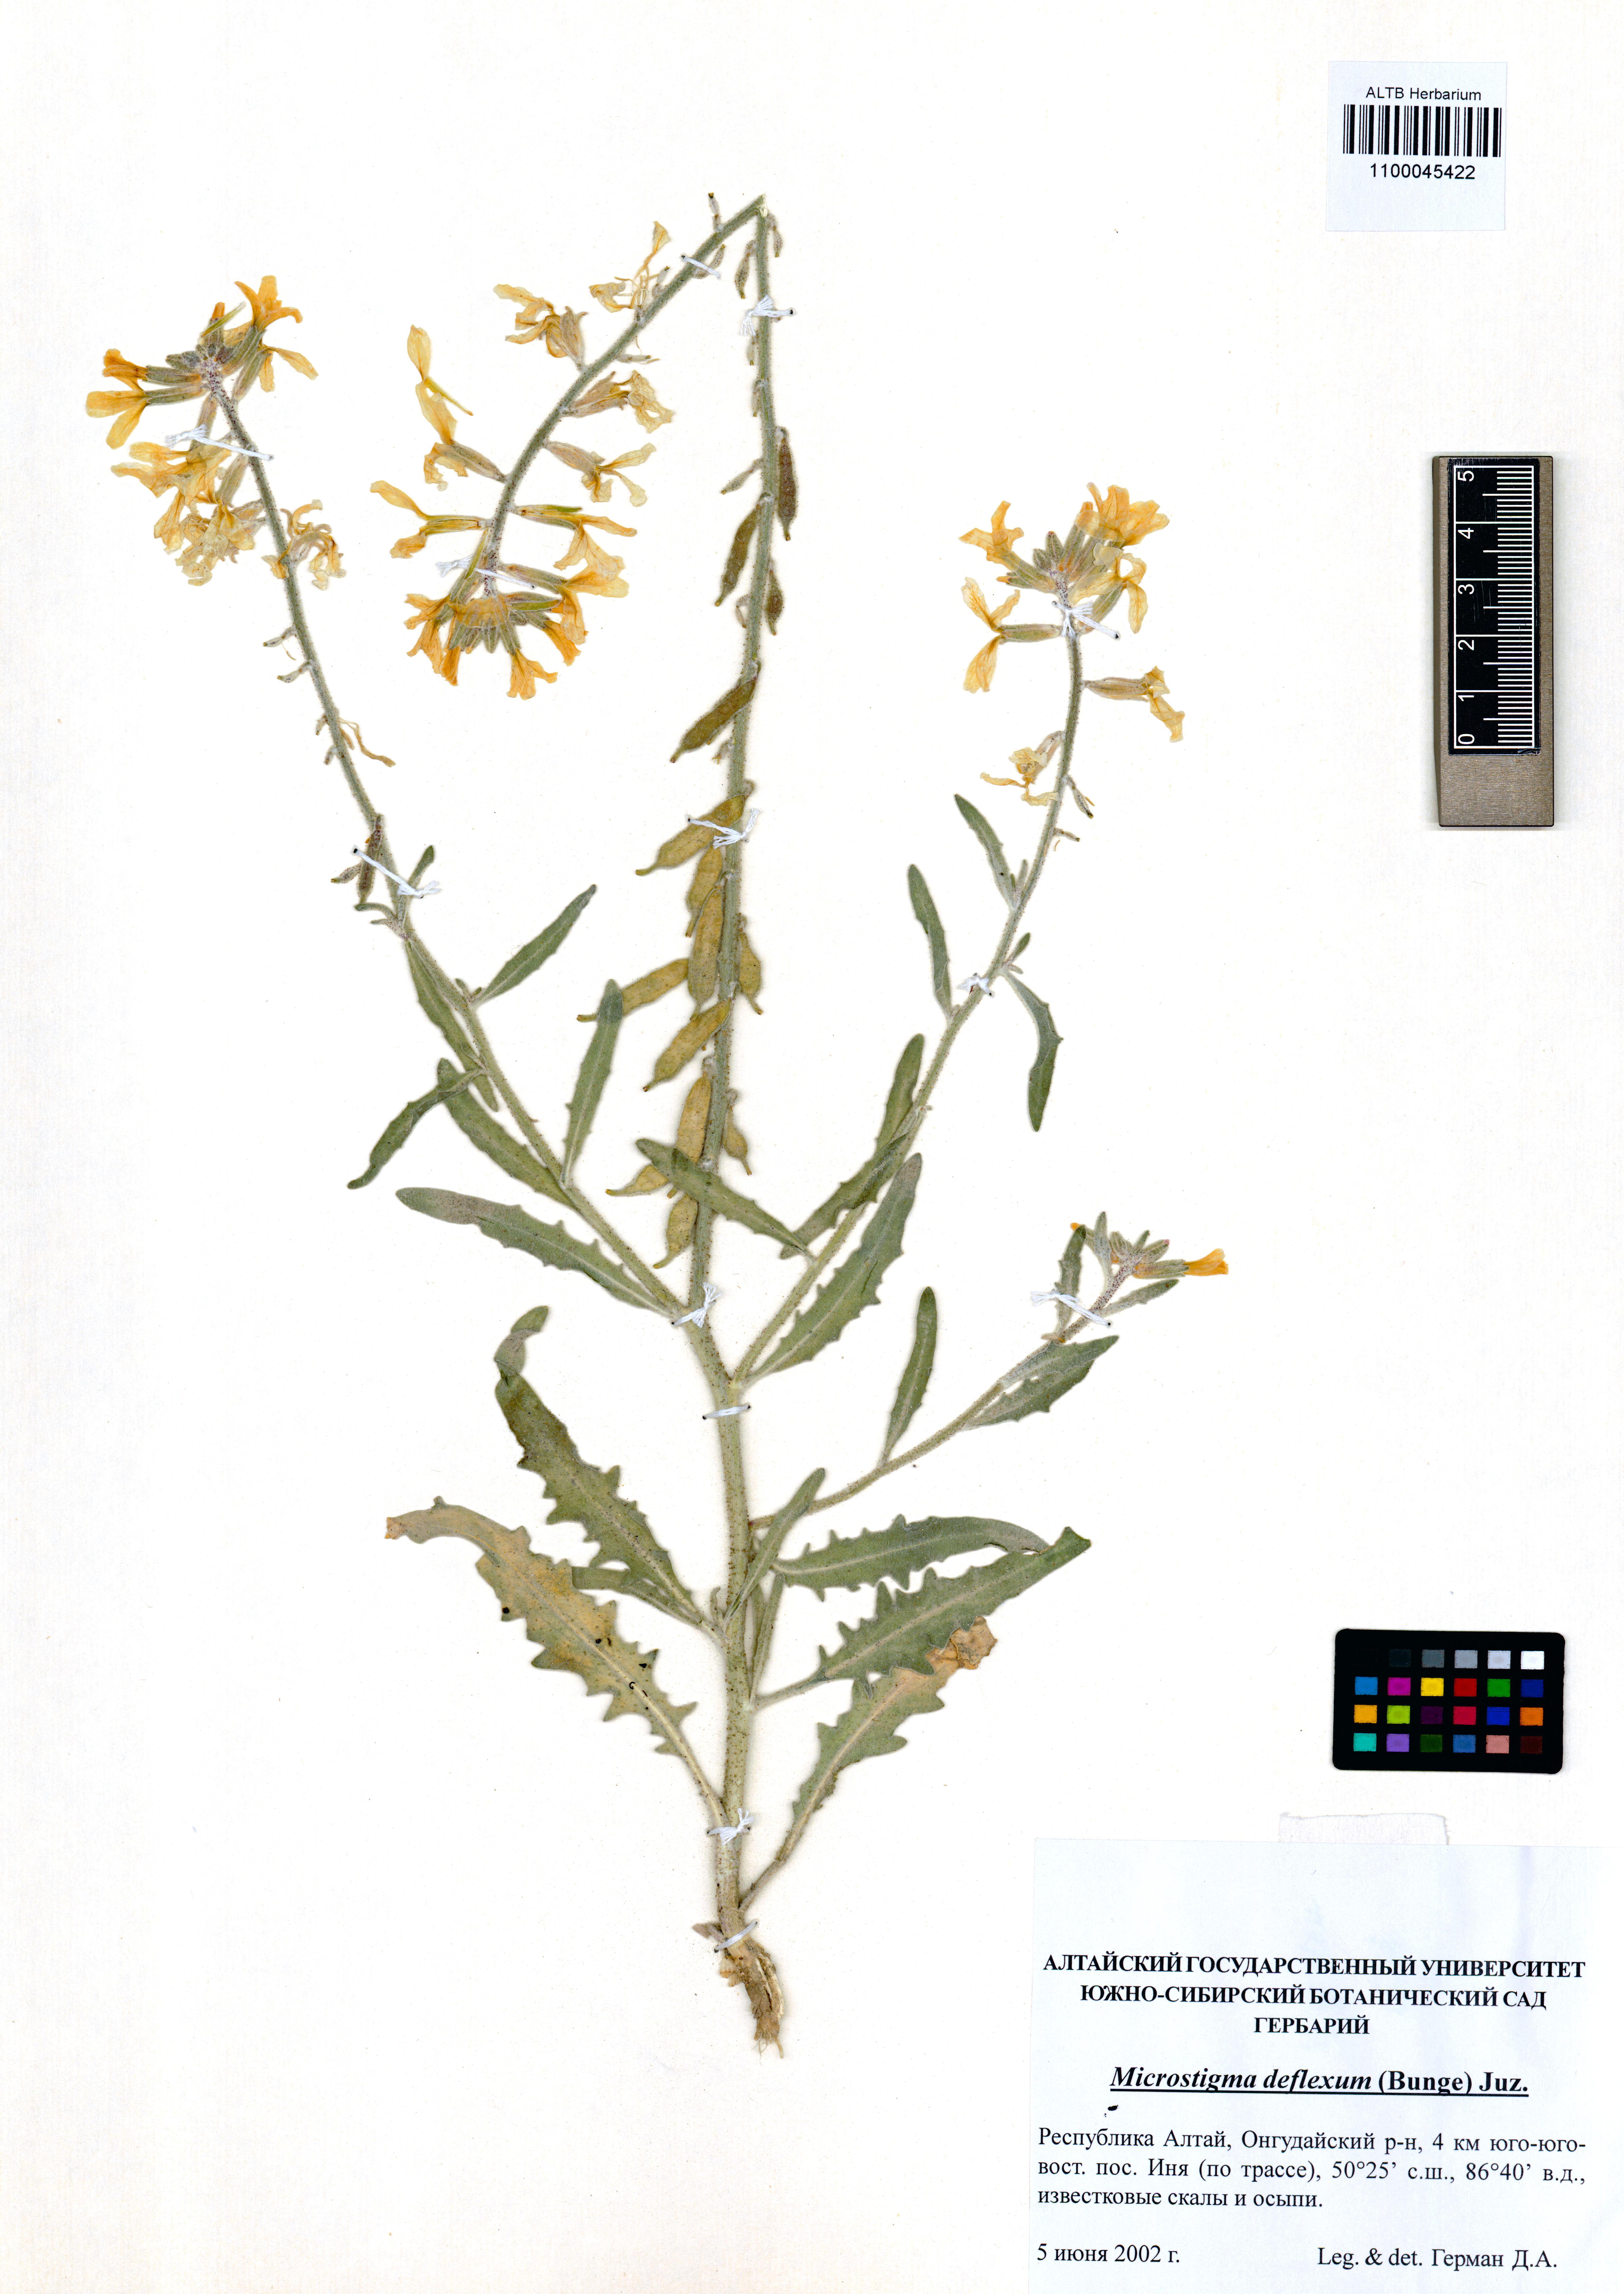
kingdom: Plantae
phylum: Tracheophyta
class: Magnoliopsida
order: Brassicales
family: Brassicaceae
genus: Microstigma
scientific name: Microstigma deflexum
